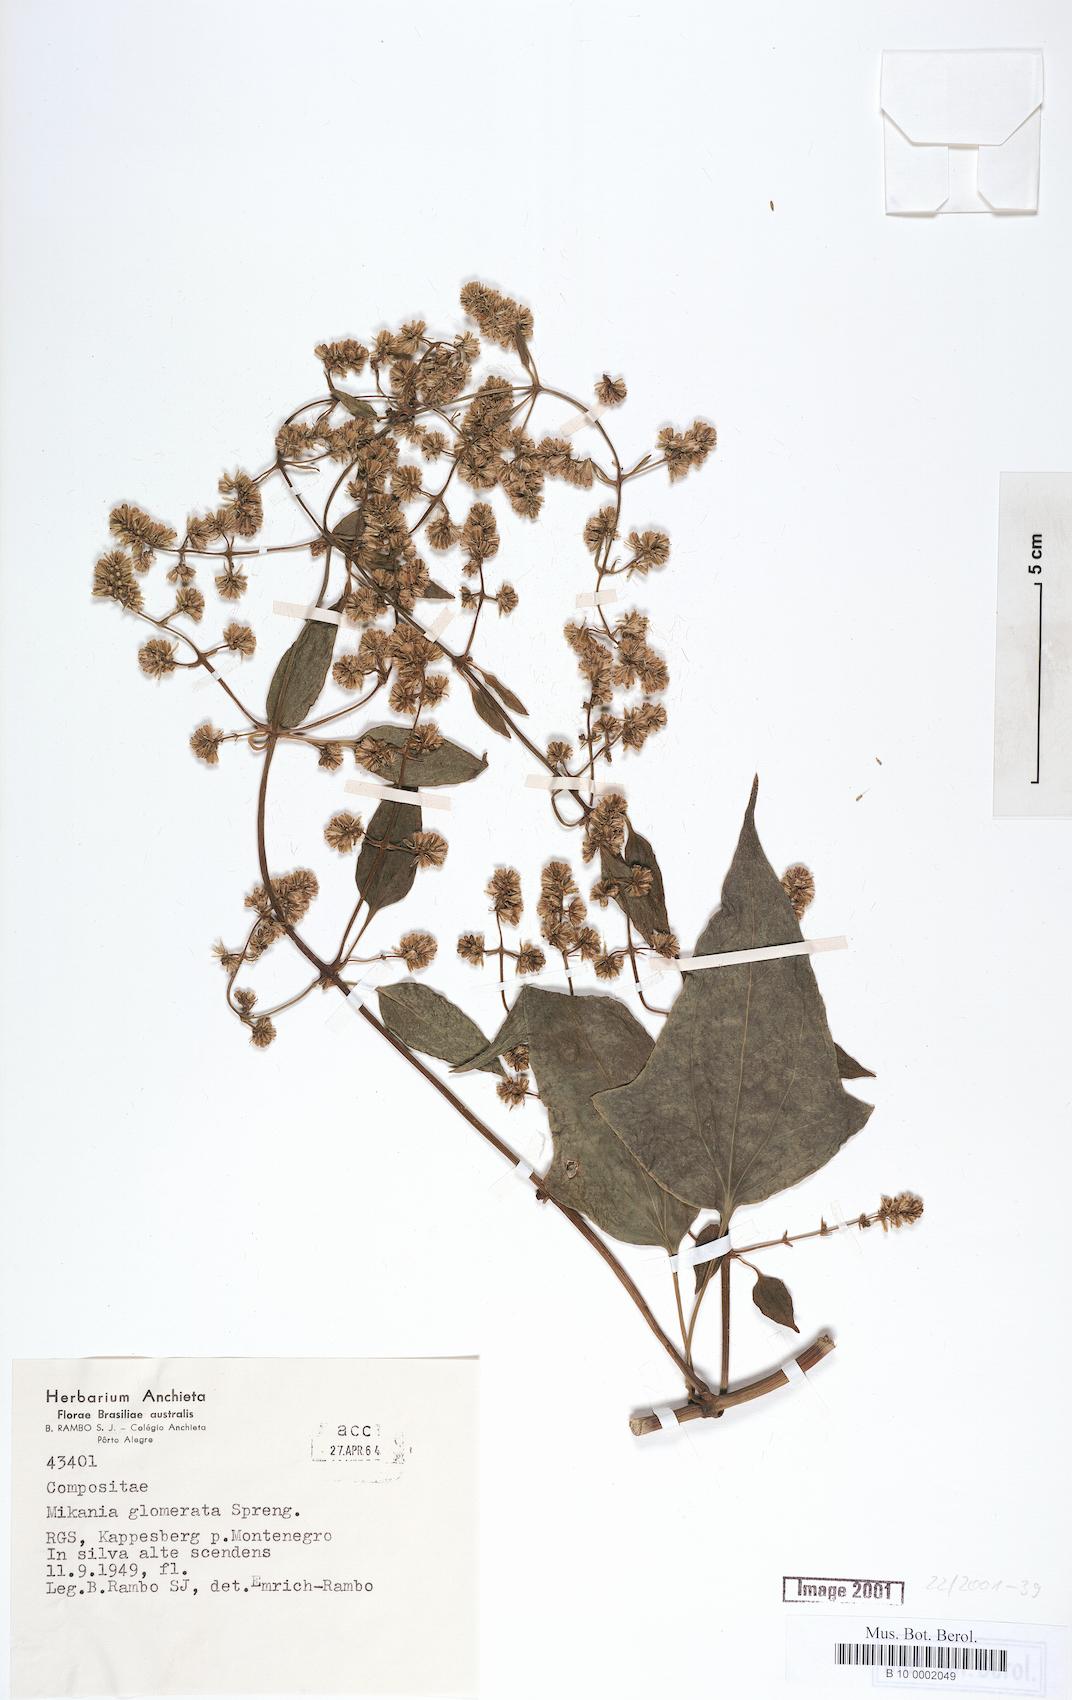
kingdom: Plantae
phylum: Tracheophyta
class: Magnoliopsida
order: Asterales
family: Asteraceae
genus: Mikania
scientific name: Mikania glomerata
